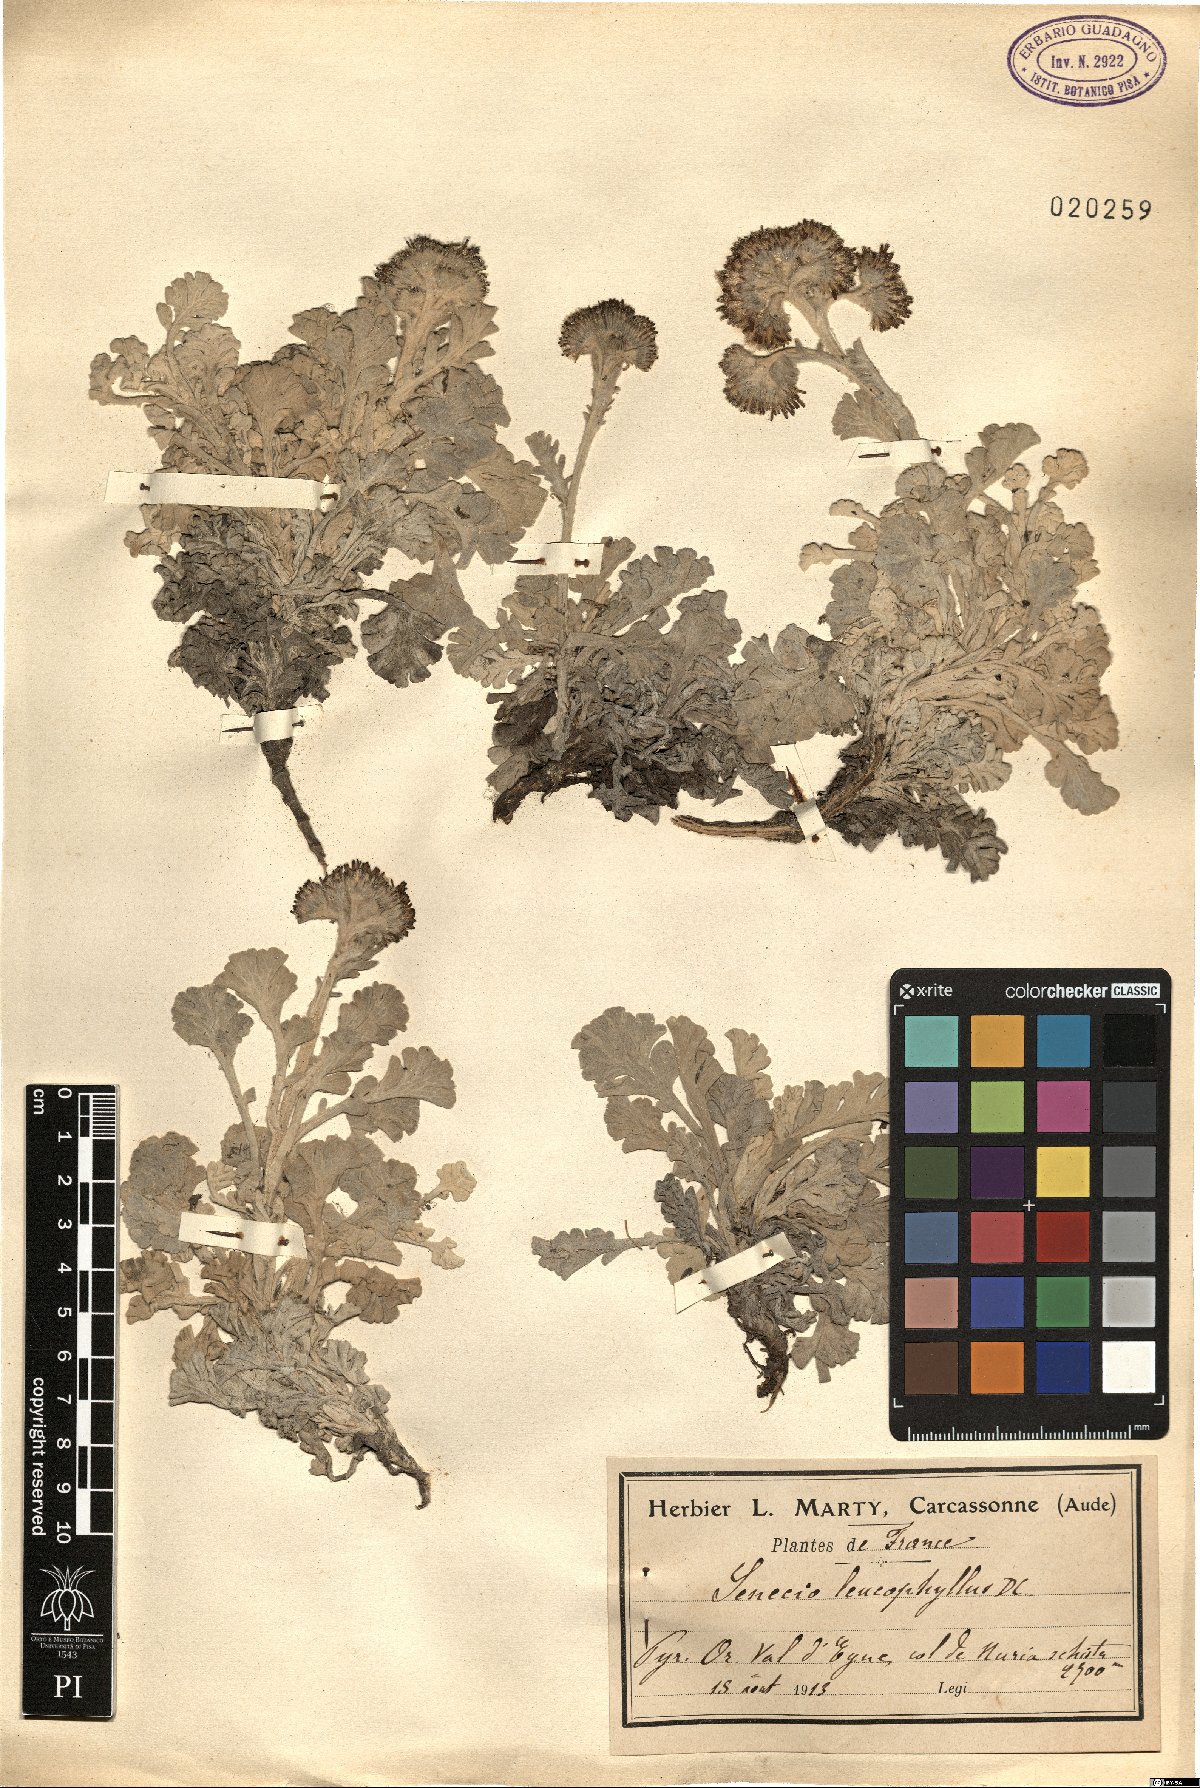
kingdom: Plantae
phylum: Tracheophyta
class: Magnoliopsida
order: Asterales
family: Asteraceae
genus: Jacobaea
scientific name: Jacobaea leucophylla
